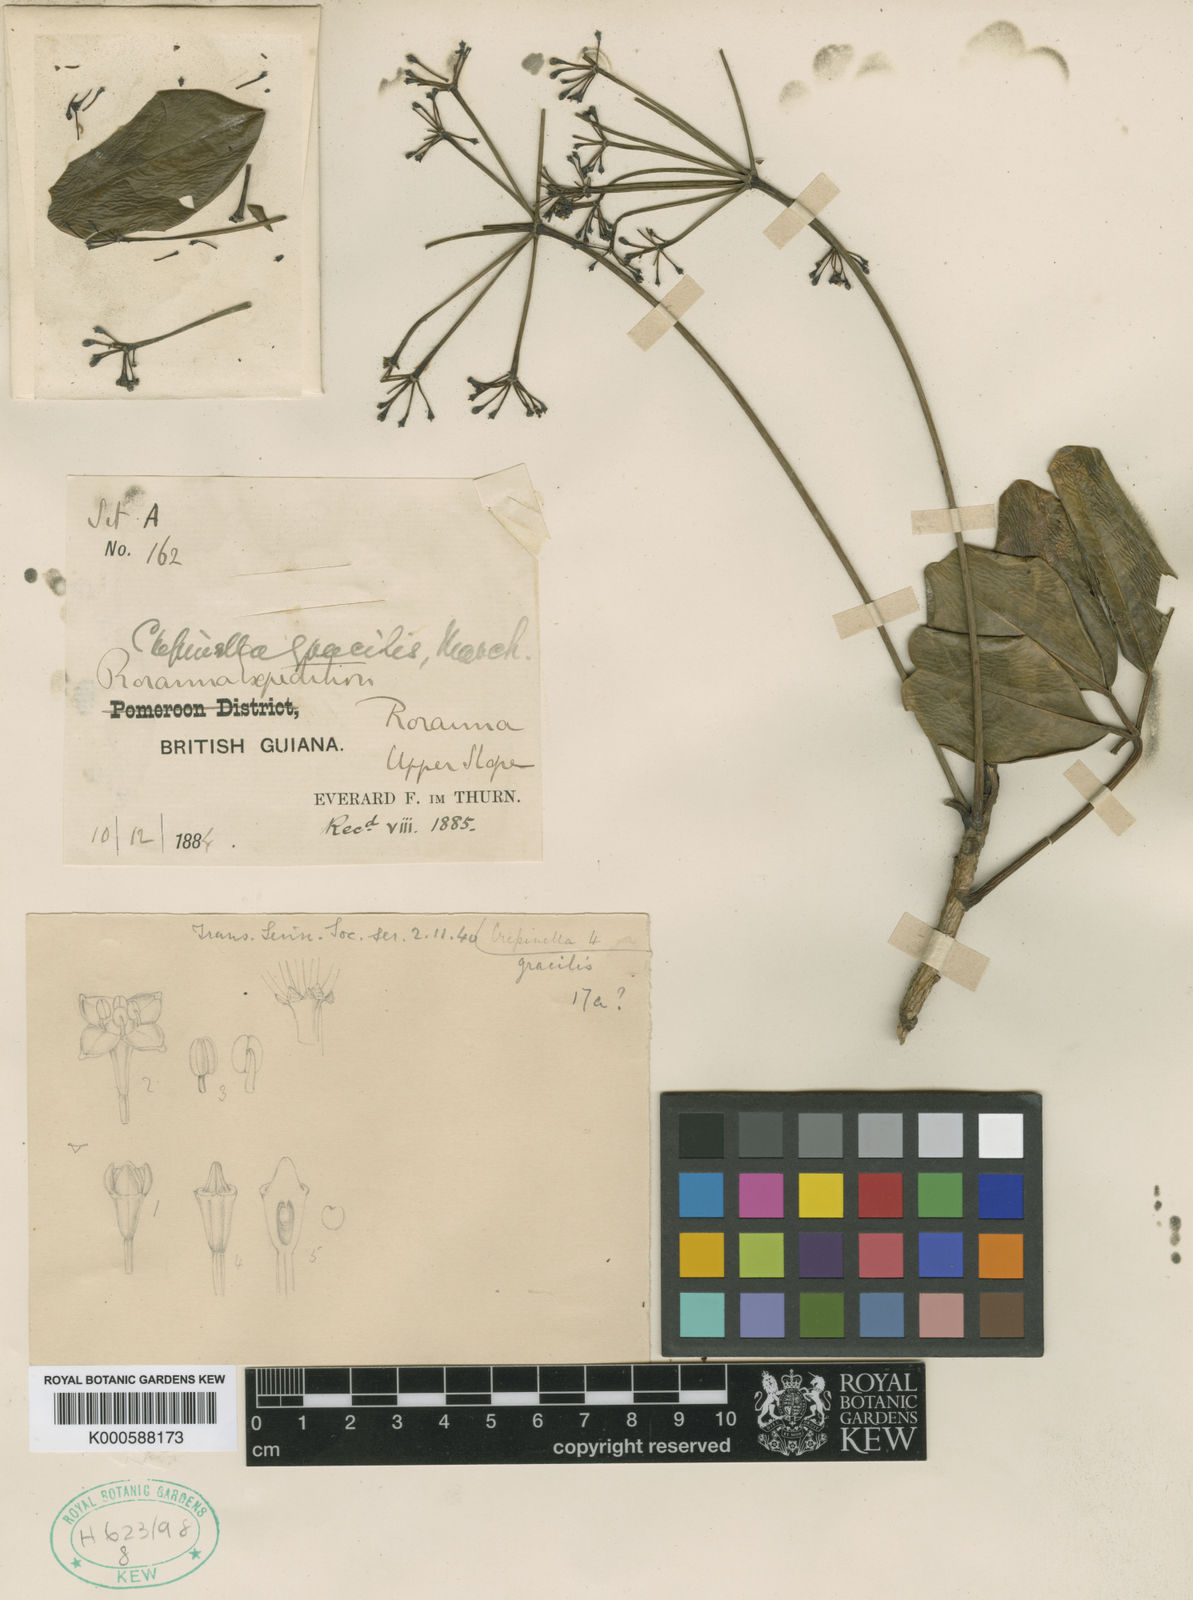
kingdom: Plantae
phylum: Tracheophyta
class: Magnoliopsida
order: Apiales
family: Araliaceae
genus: Sciodaphyllum
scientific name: Sciodaphyllum monospermum
